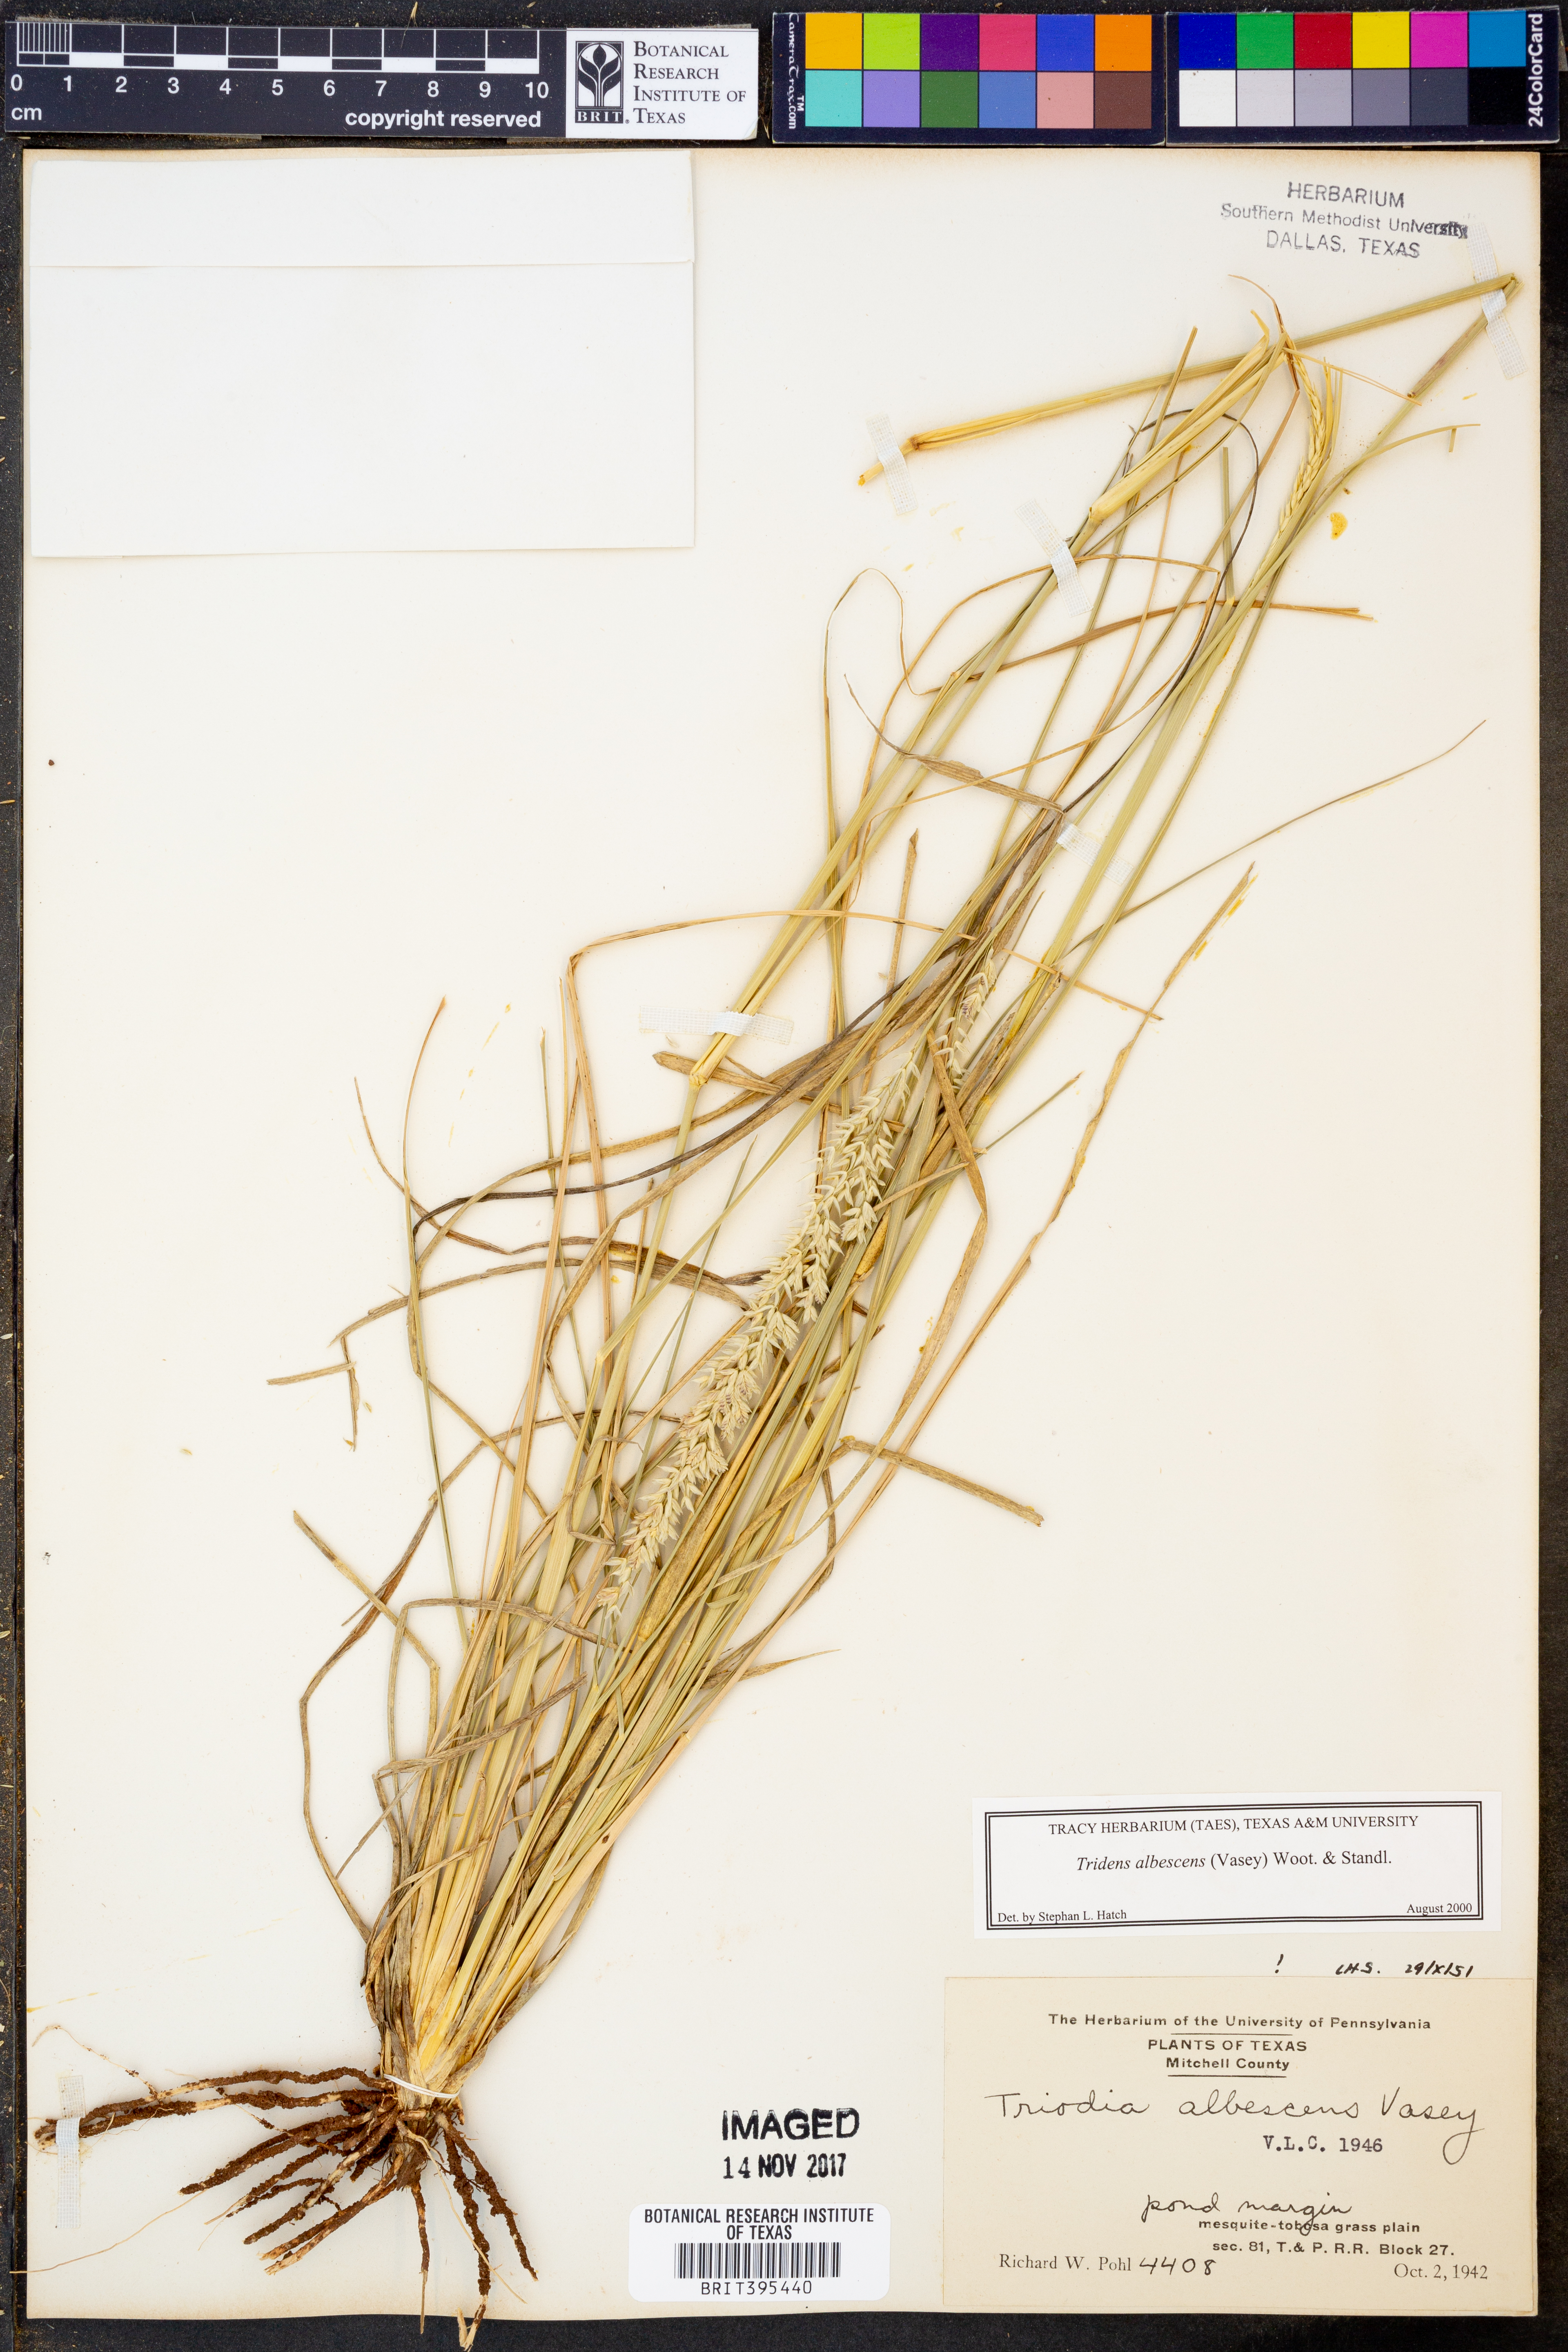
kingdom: Plantae
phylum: Tracheophyta
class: Liliopsida
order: Poales
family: Poaceae
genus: Tridens
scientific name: Tridens albescens
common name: White tridens
